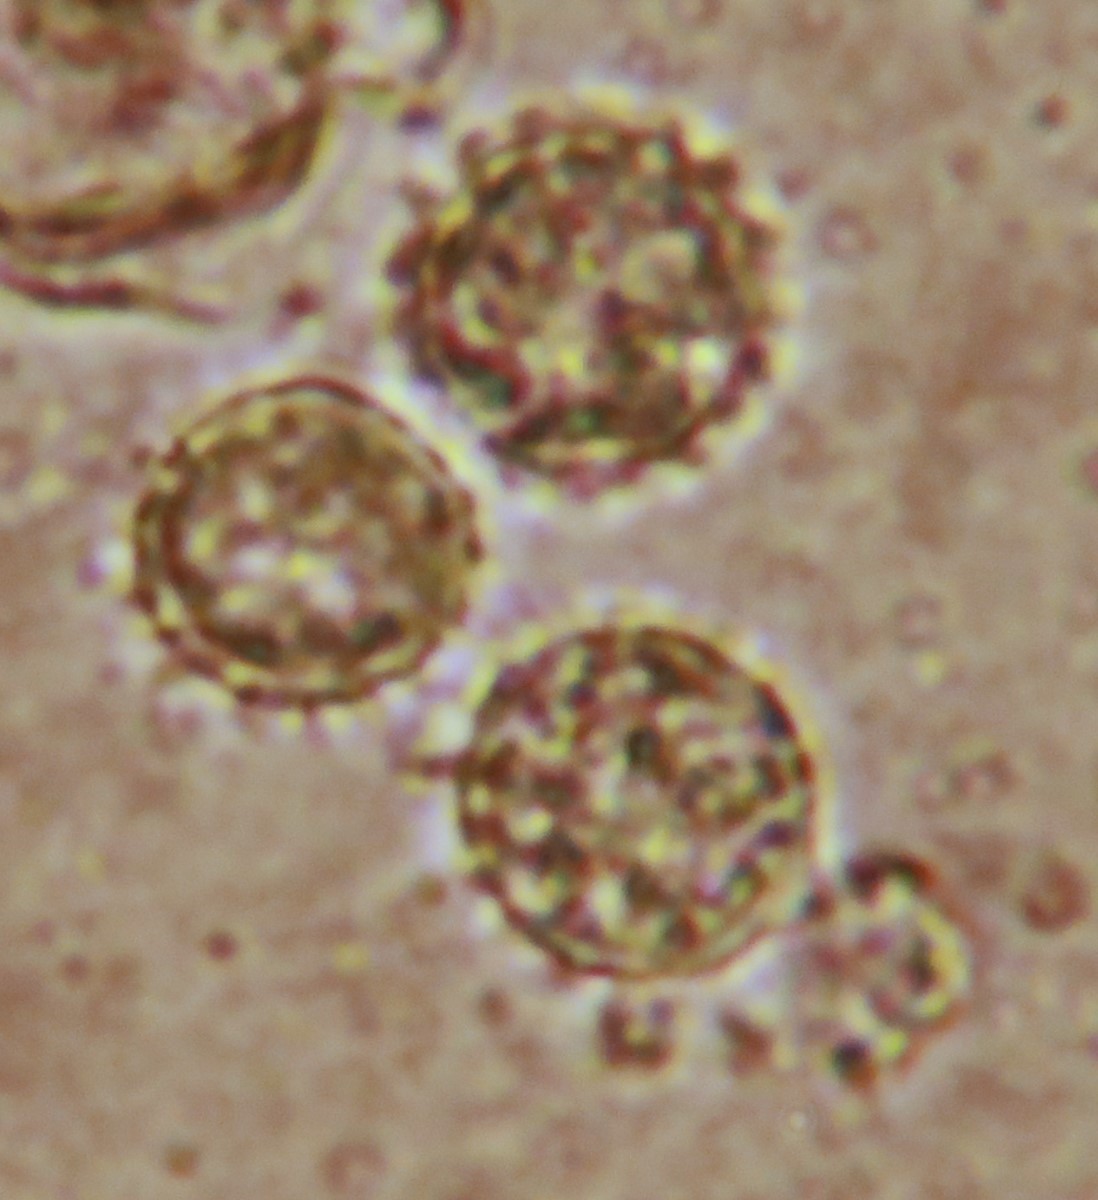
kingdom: Fungi
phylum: Basidiomycota
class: Agaricomycetes
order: Agaricales
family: Hydnangiaceae
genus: Laccaria
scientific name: Laccaria laccata
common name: rød ametysthat
